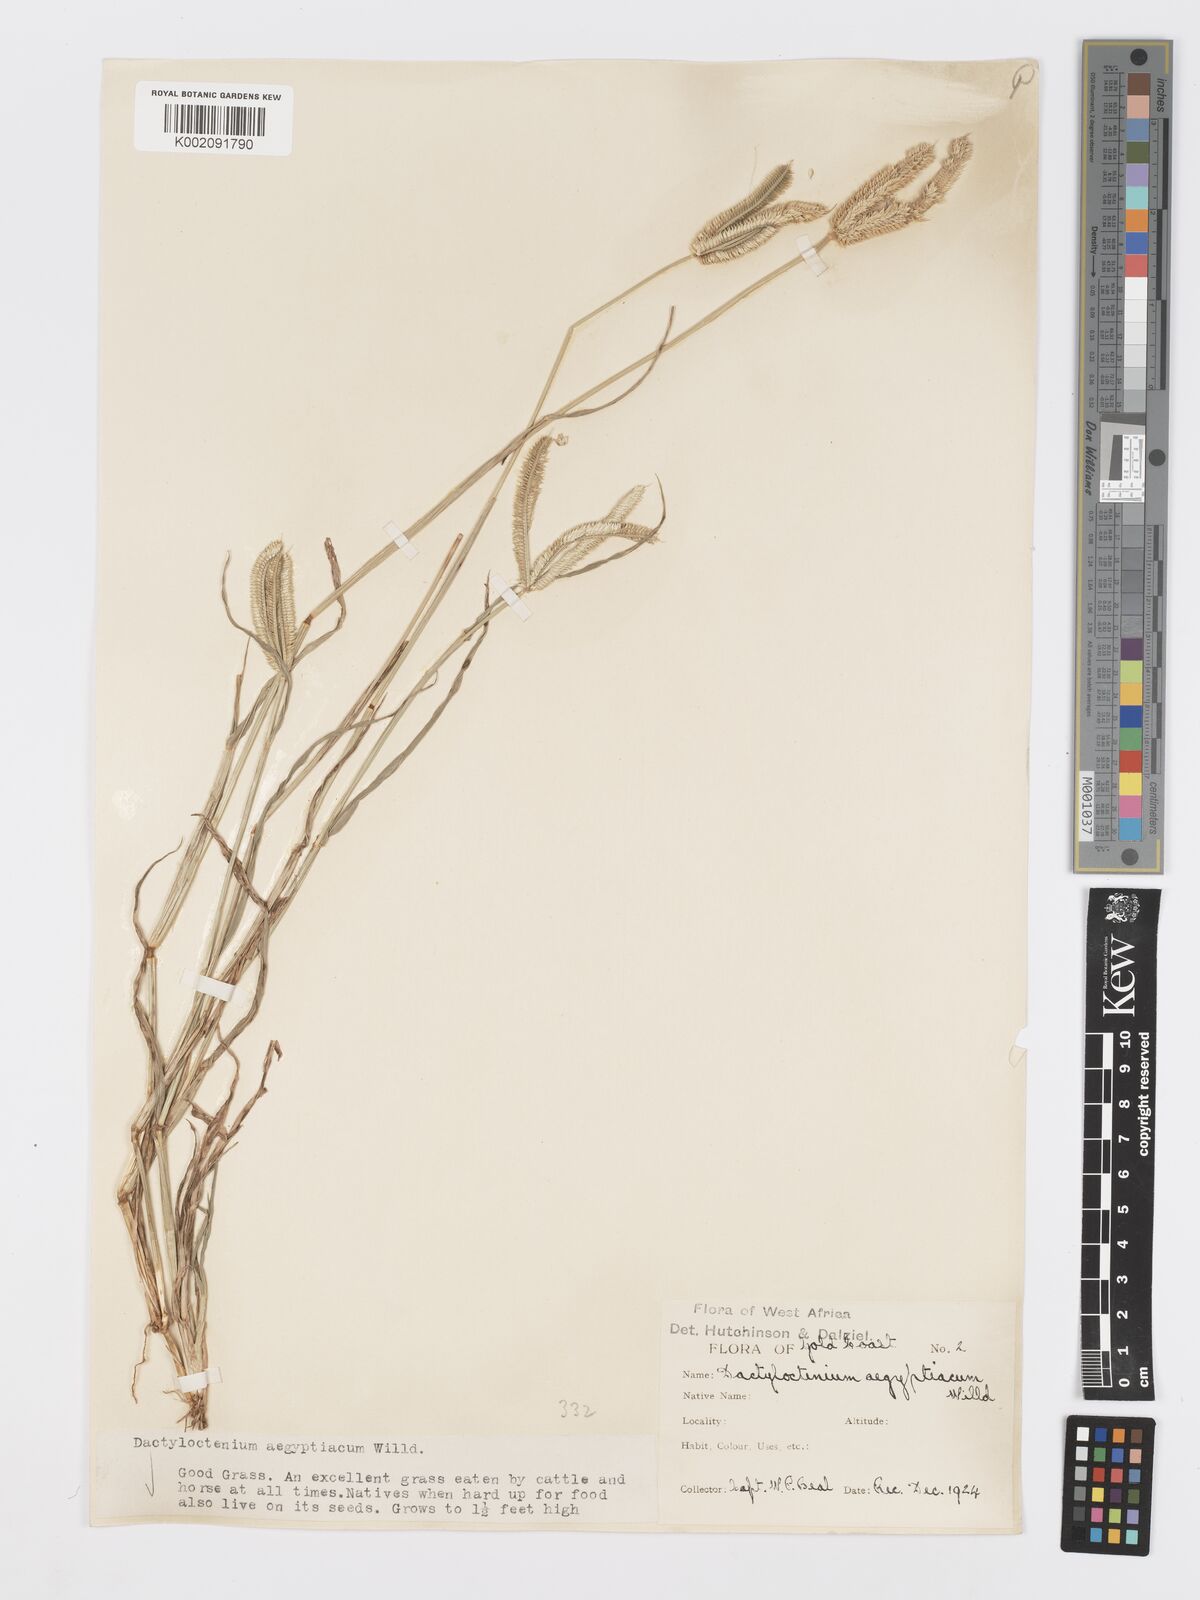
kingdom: Plantae
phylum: Tracheophyta
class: Liliopsida
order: Poales
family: Poaceae
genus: Dactyloctenium
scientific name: Dactyloctenium aegyptium
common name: Egyptian grass
